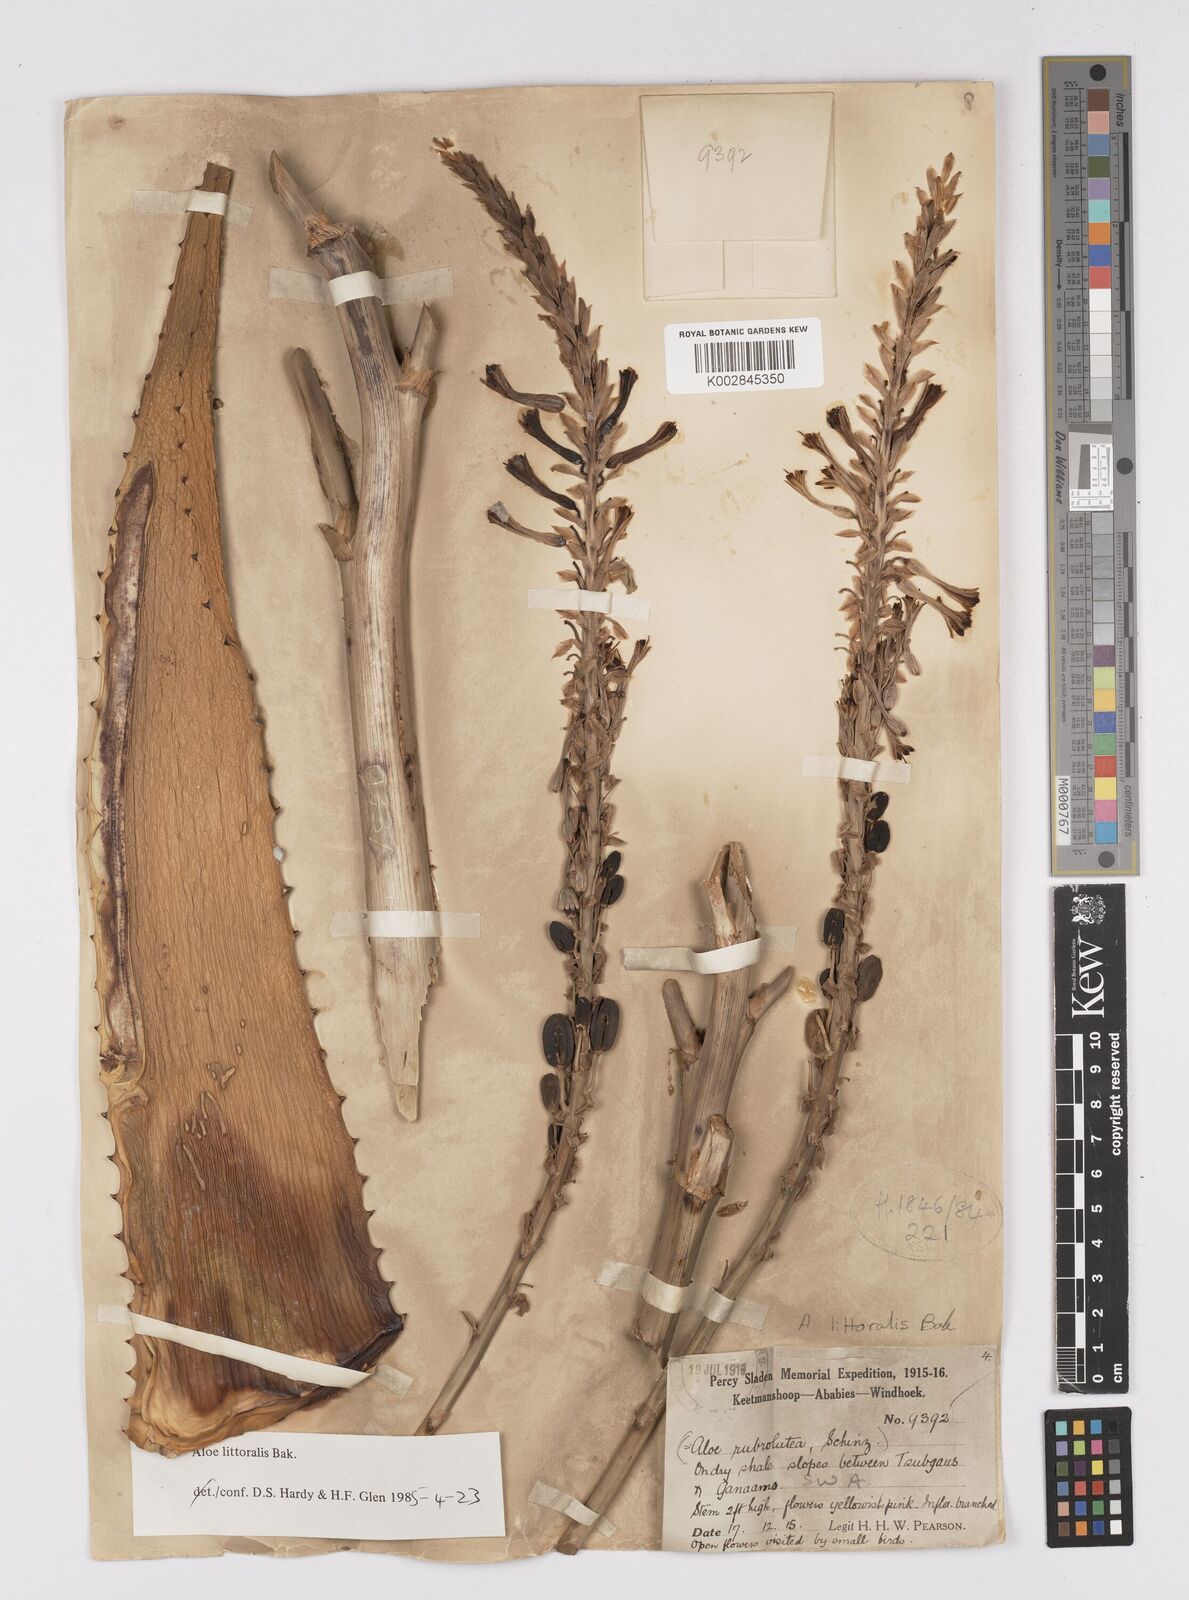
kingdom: Plantae
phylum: Tracheophyta
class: Liliopsida
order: Asparagales
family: Asphodelaceae
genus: Aloe
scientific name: Aloe littoralis
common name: Luanda tree aloe
